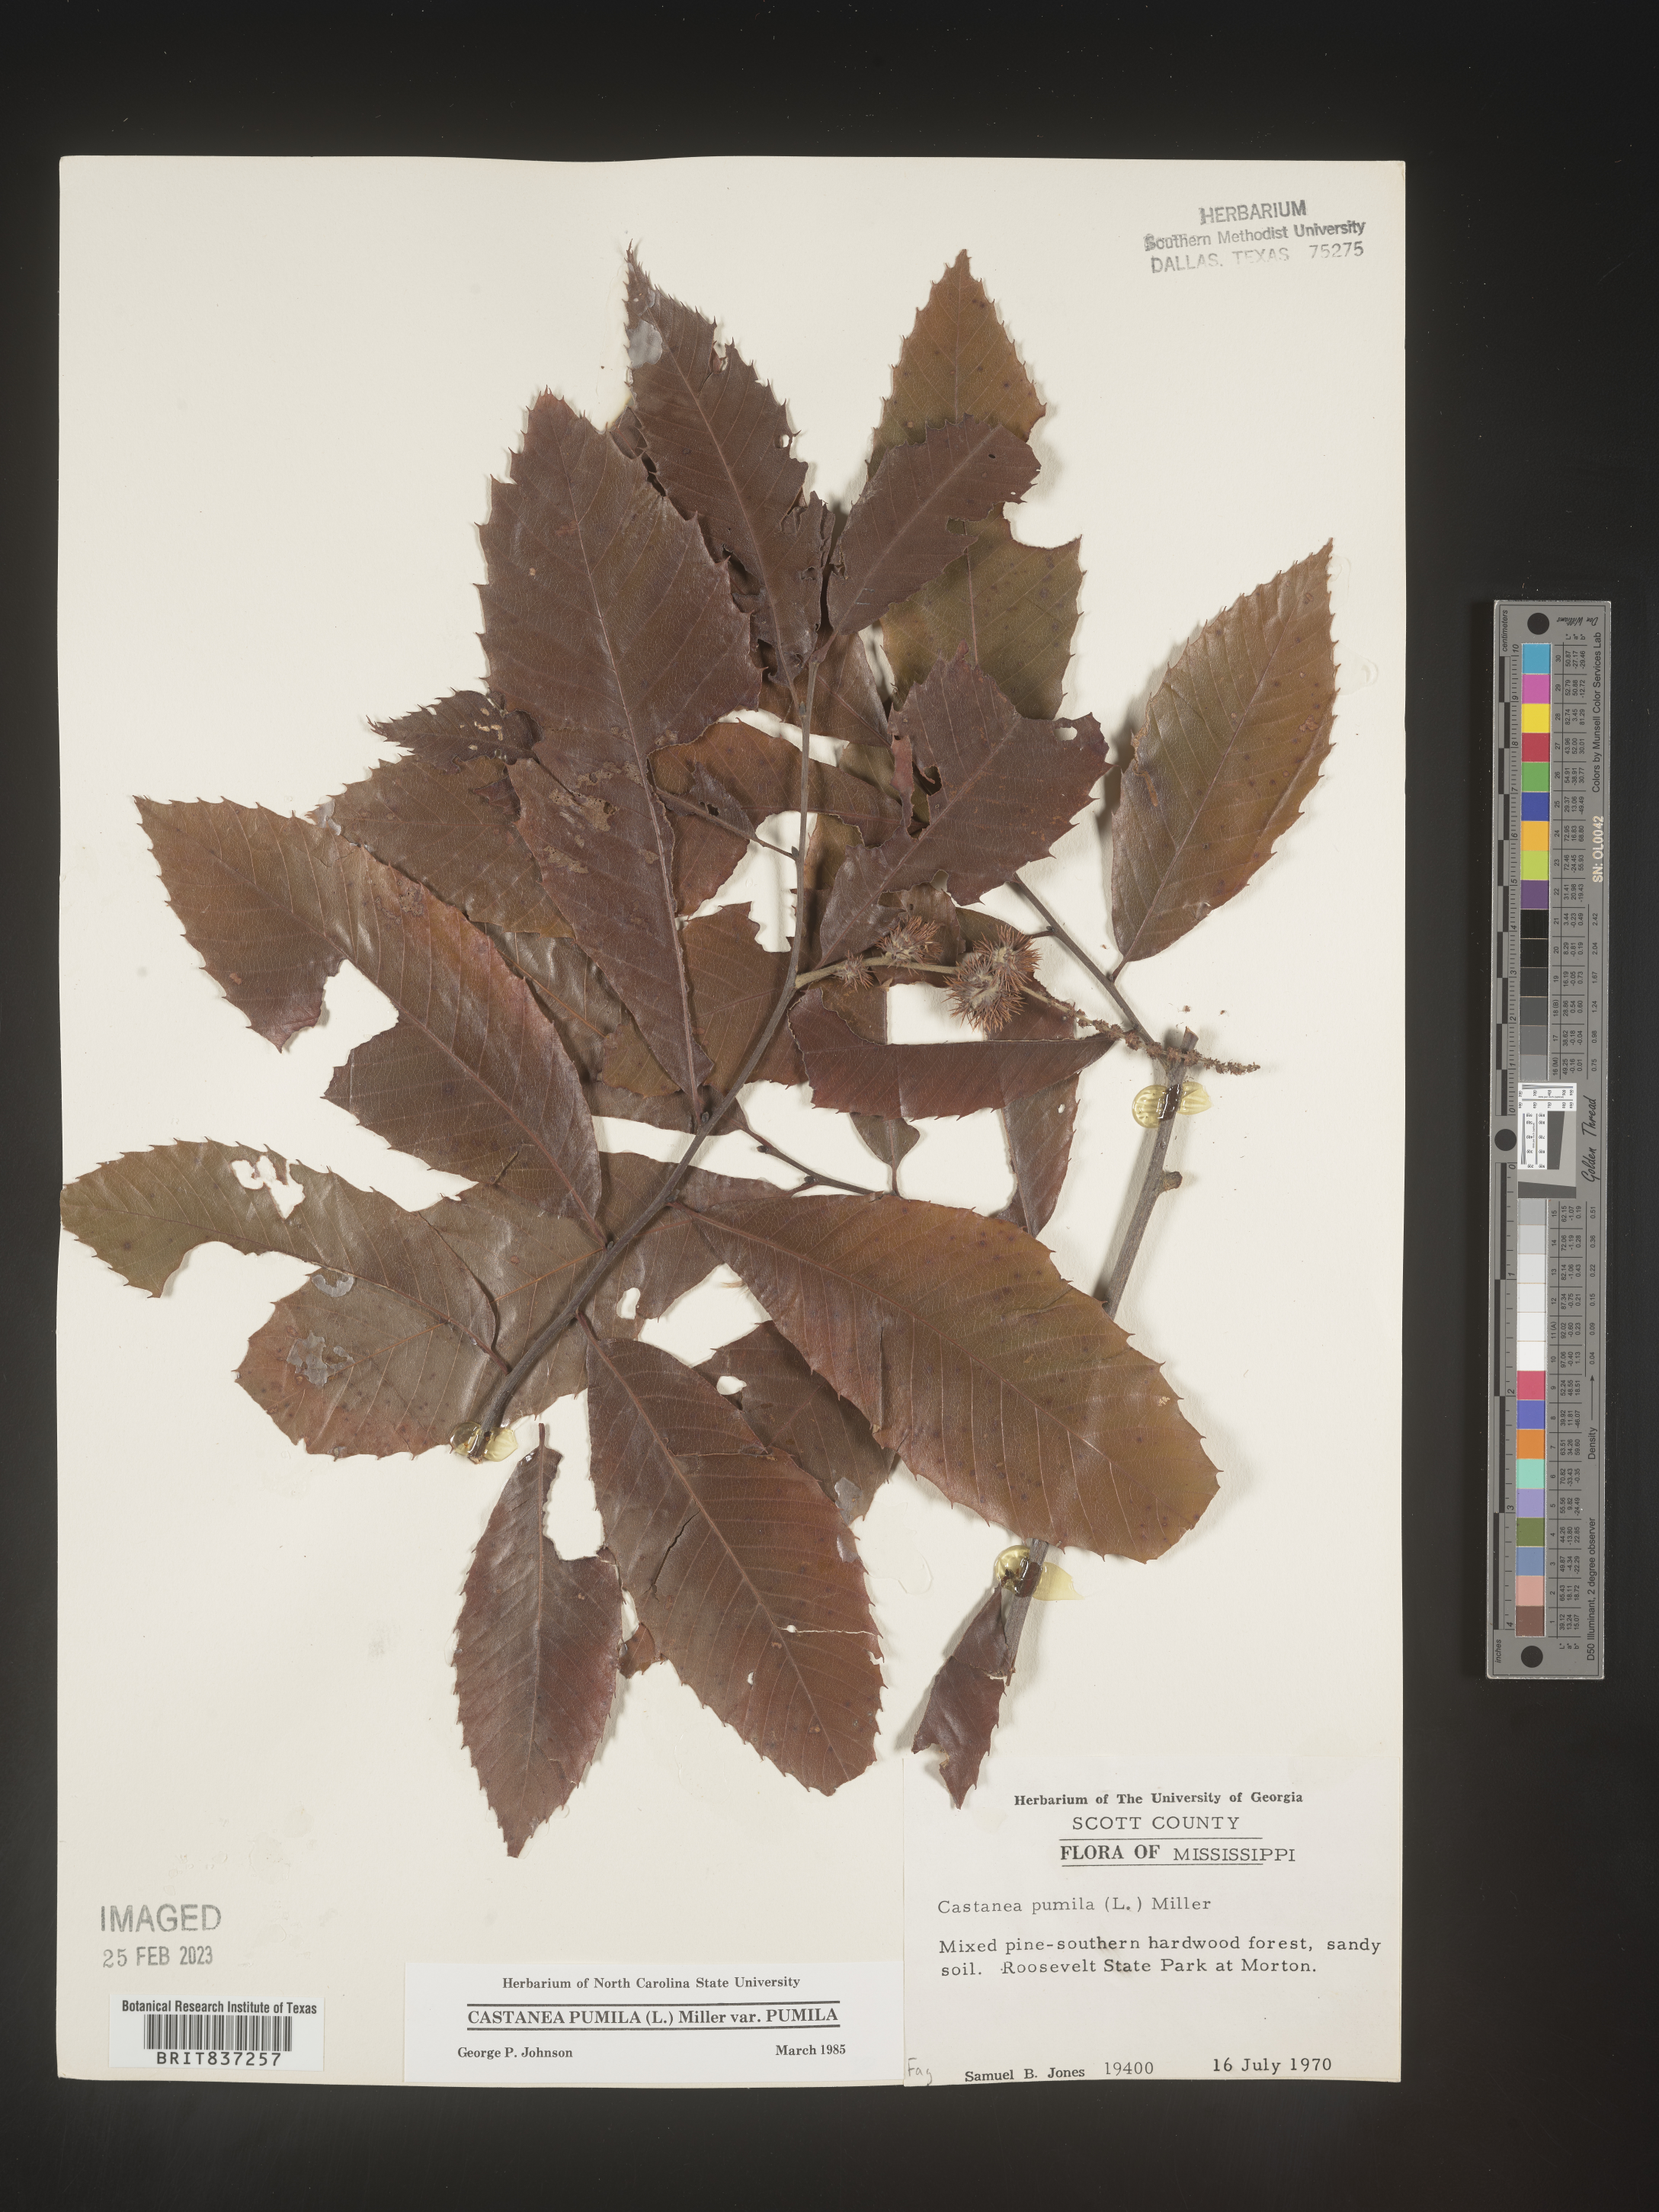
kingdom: Plantae
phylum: Tracheophyta
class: Magnoliopsida
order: Fagales
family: Fagaceae
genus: Castanea
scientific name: Castanea pumila
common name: Chinkapin
